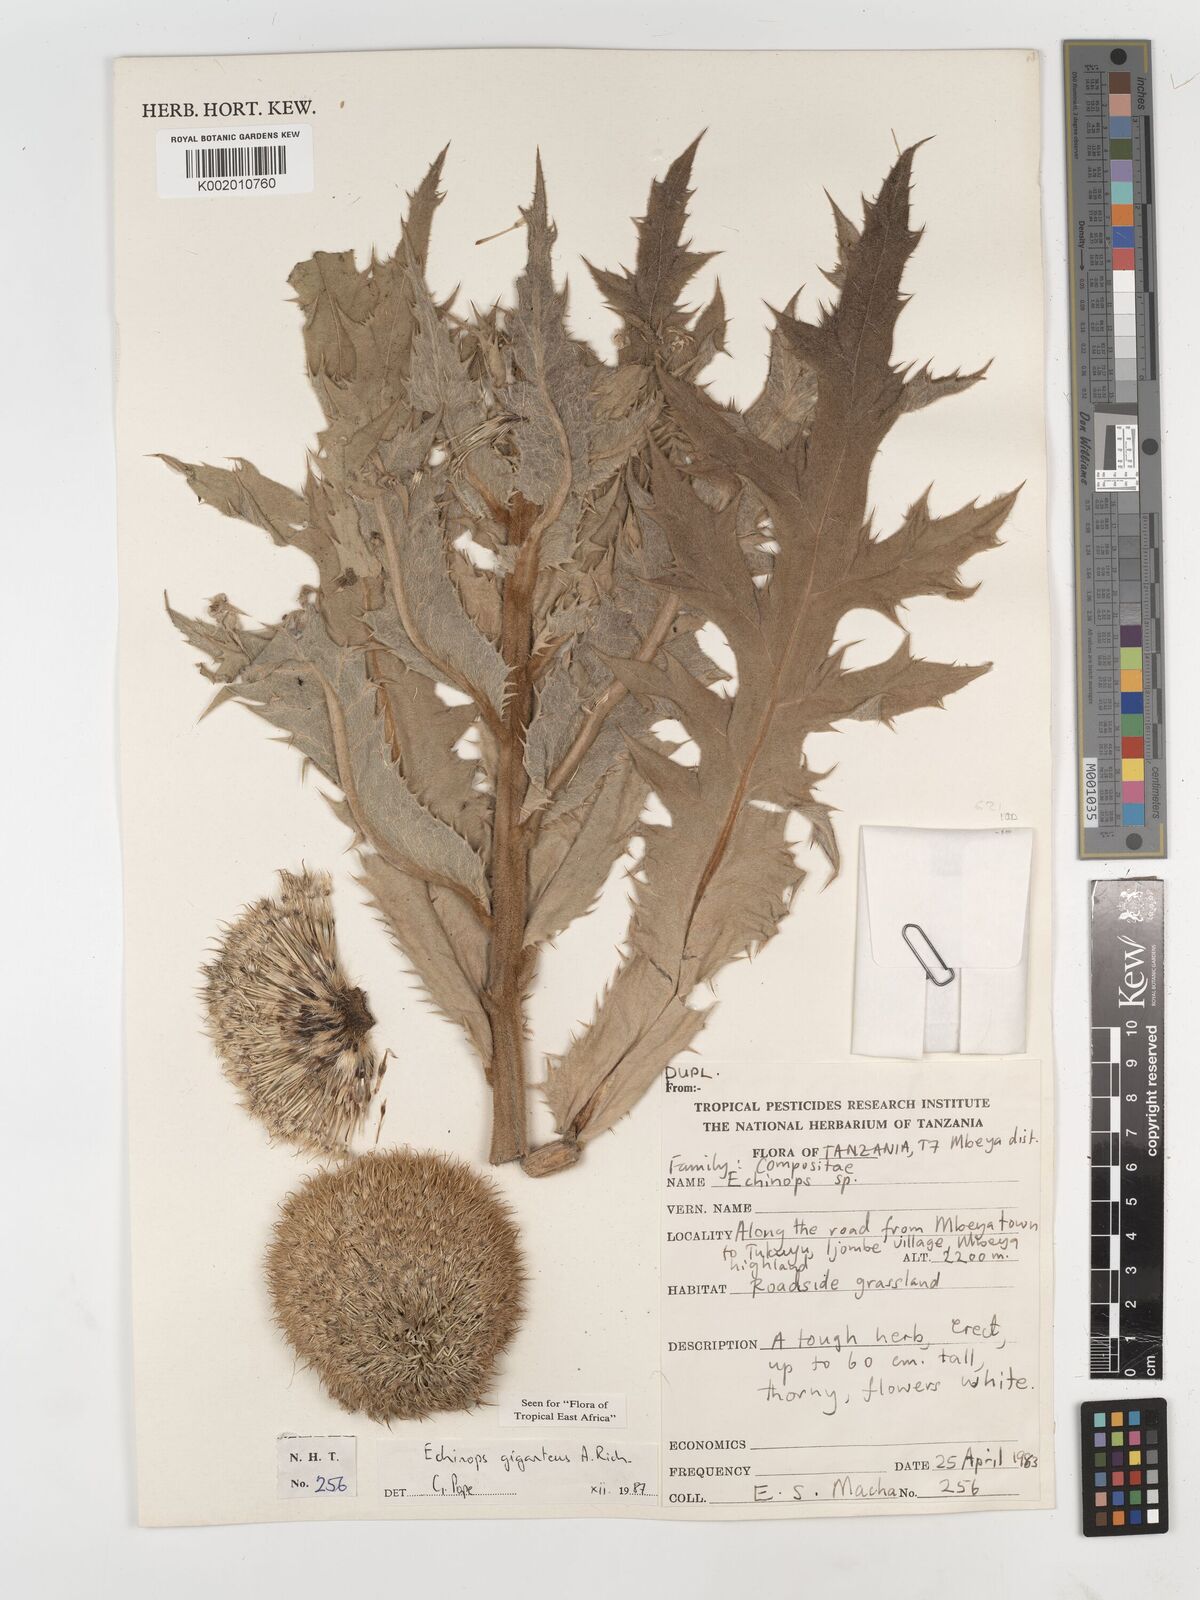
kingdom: Plantae
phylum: Tracheophyta
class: Magnoliopsida
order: Asterales
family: Asteraceae
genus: Echinops
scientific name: Echinops giganteus
